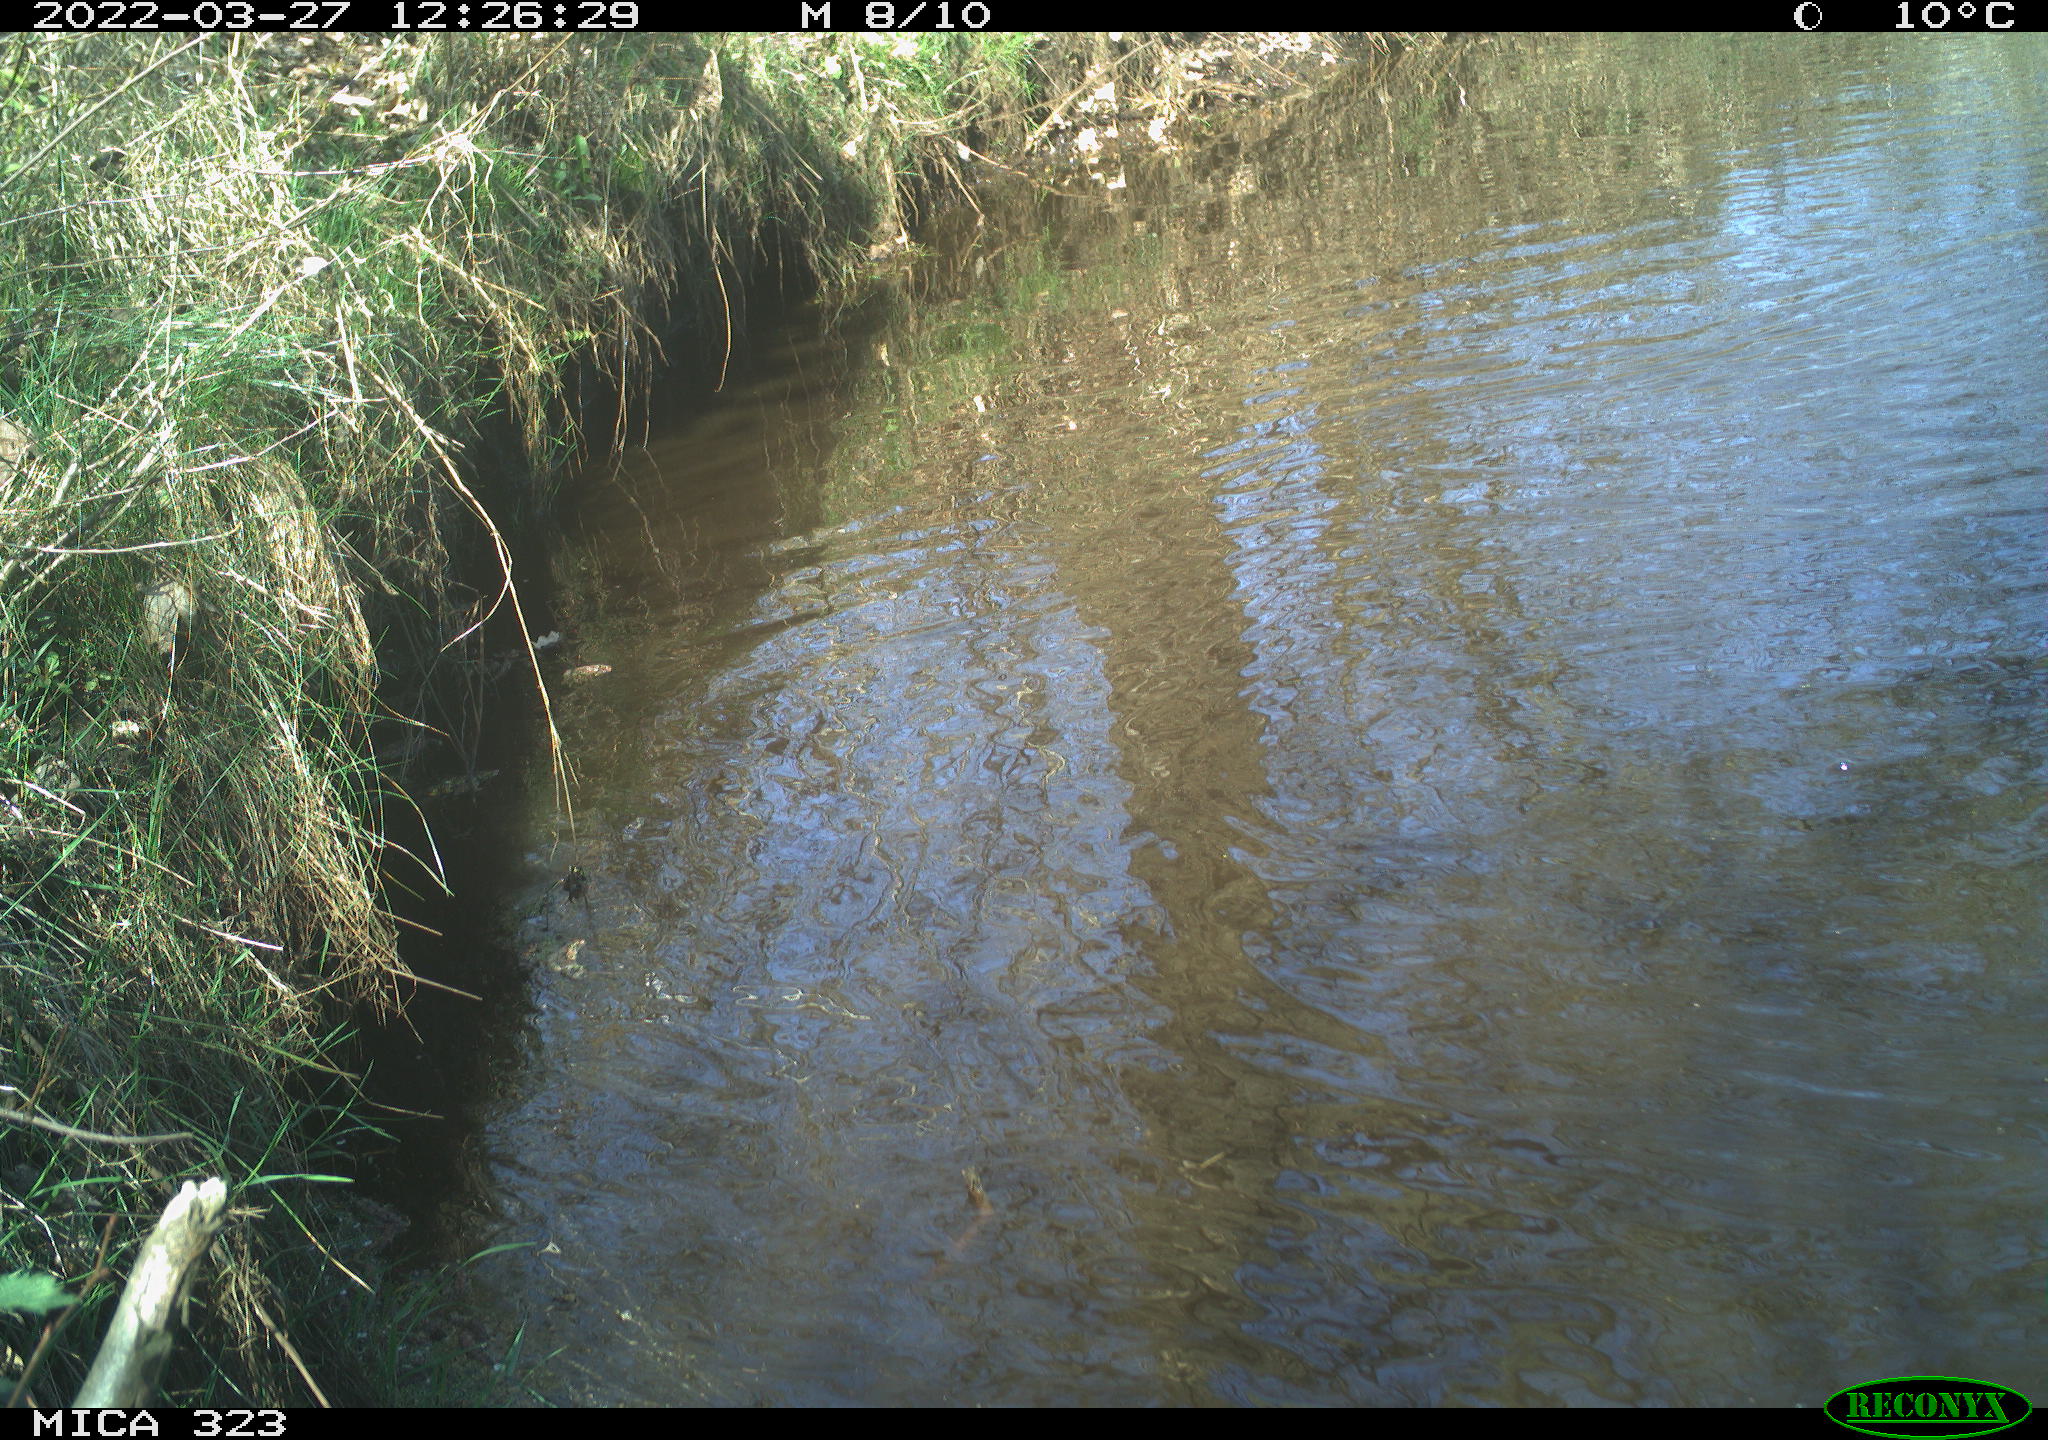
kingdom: Animalia
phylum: Chordata
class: Aves
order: Anseriformes
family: Anatidae
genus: Anas
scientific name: Anas platyrhynchos
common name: Mallard
